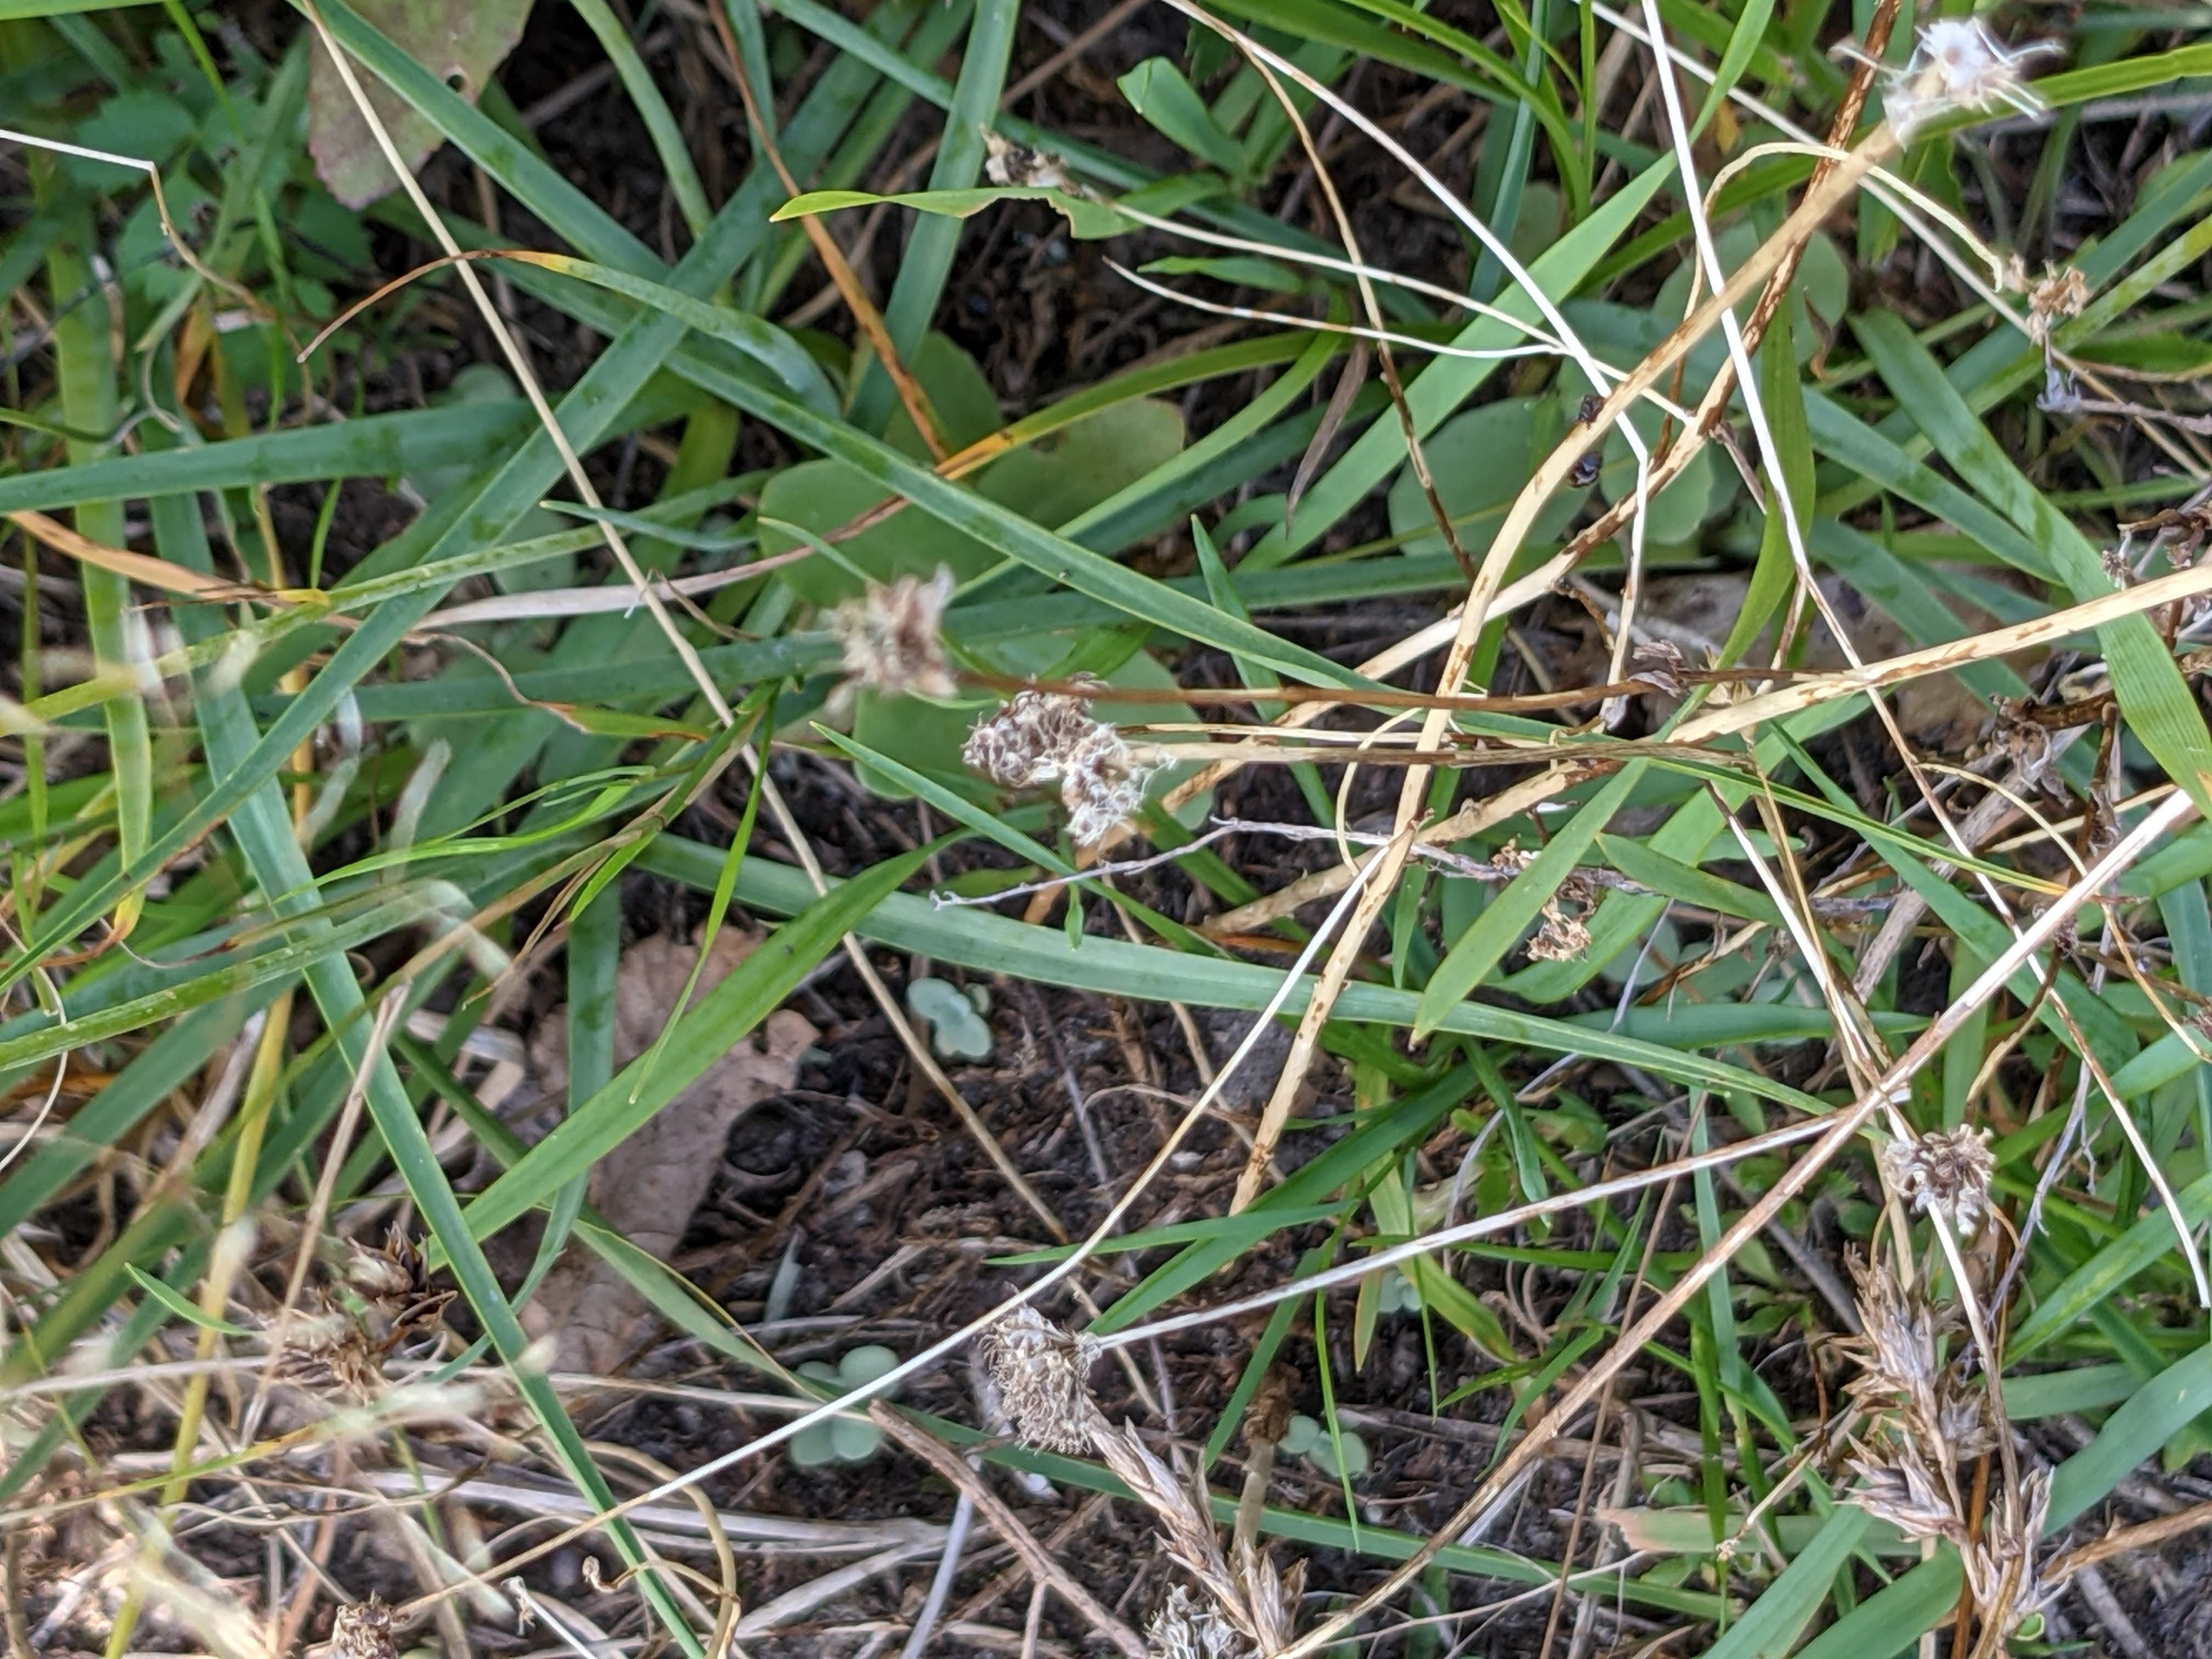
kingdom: Plantae
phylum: Tracheophyta
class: Liliopsida
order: Asparagales
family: Asparagaceae
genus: Anthericum
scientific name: Anthericum ramosum
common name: Grenet edderkopurt
